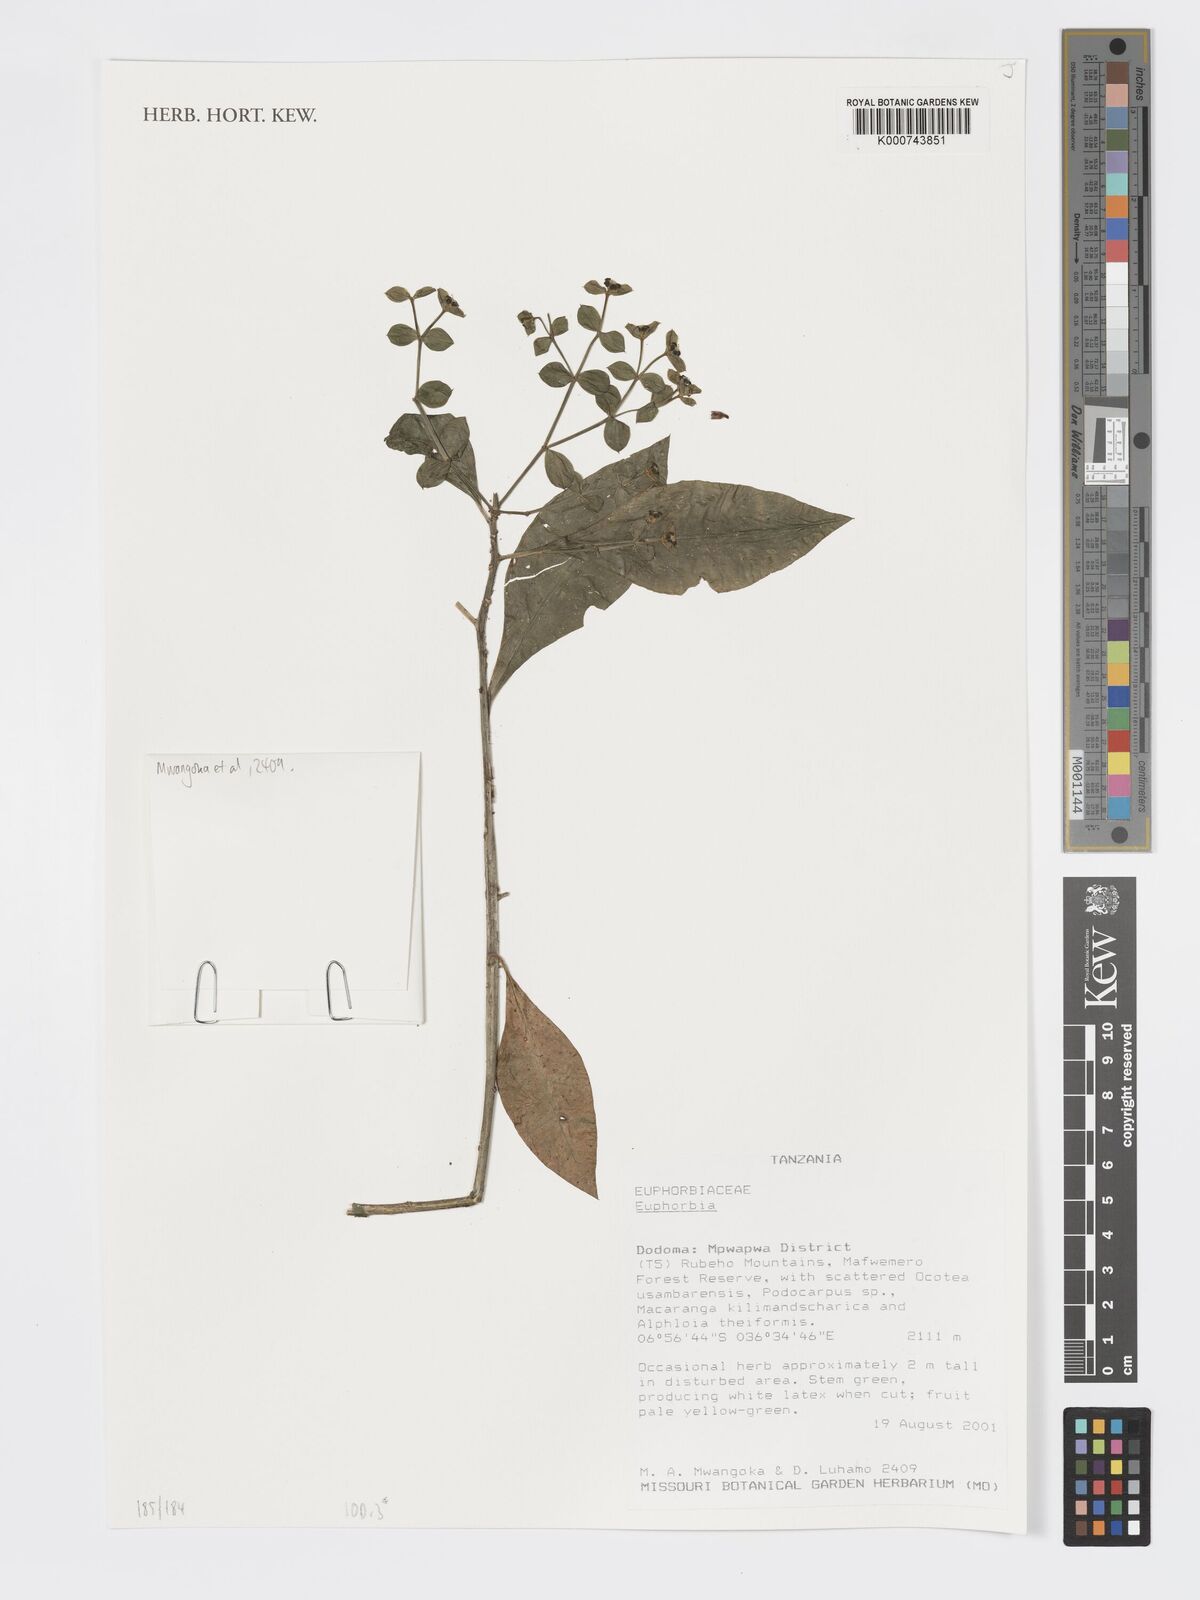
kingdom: Plantae
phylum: Tracheophyta
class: Magnoliopsida
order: Malpighiales
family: Euphorbiaceae
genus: Euphorbia
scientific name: Euphorbia
